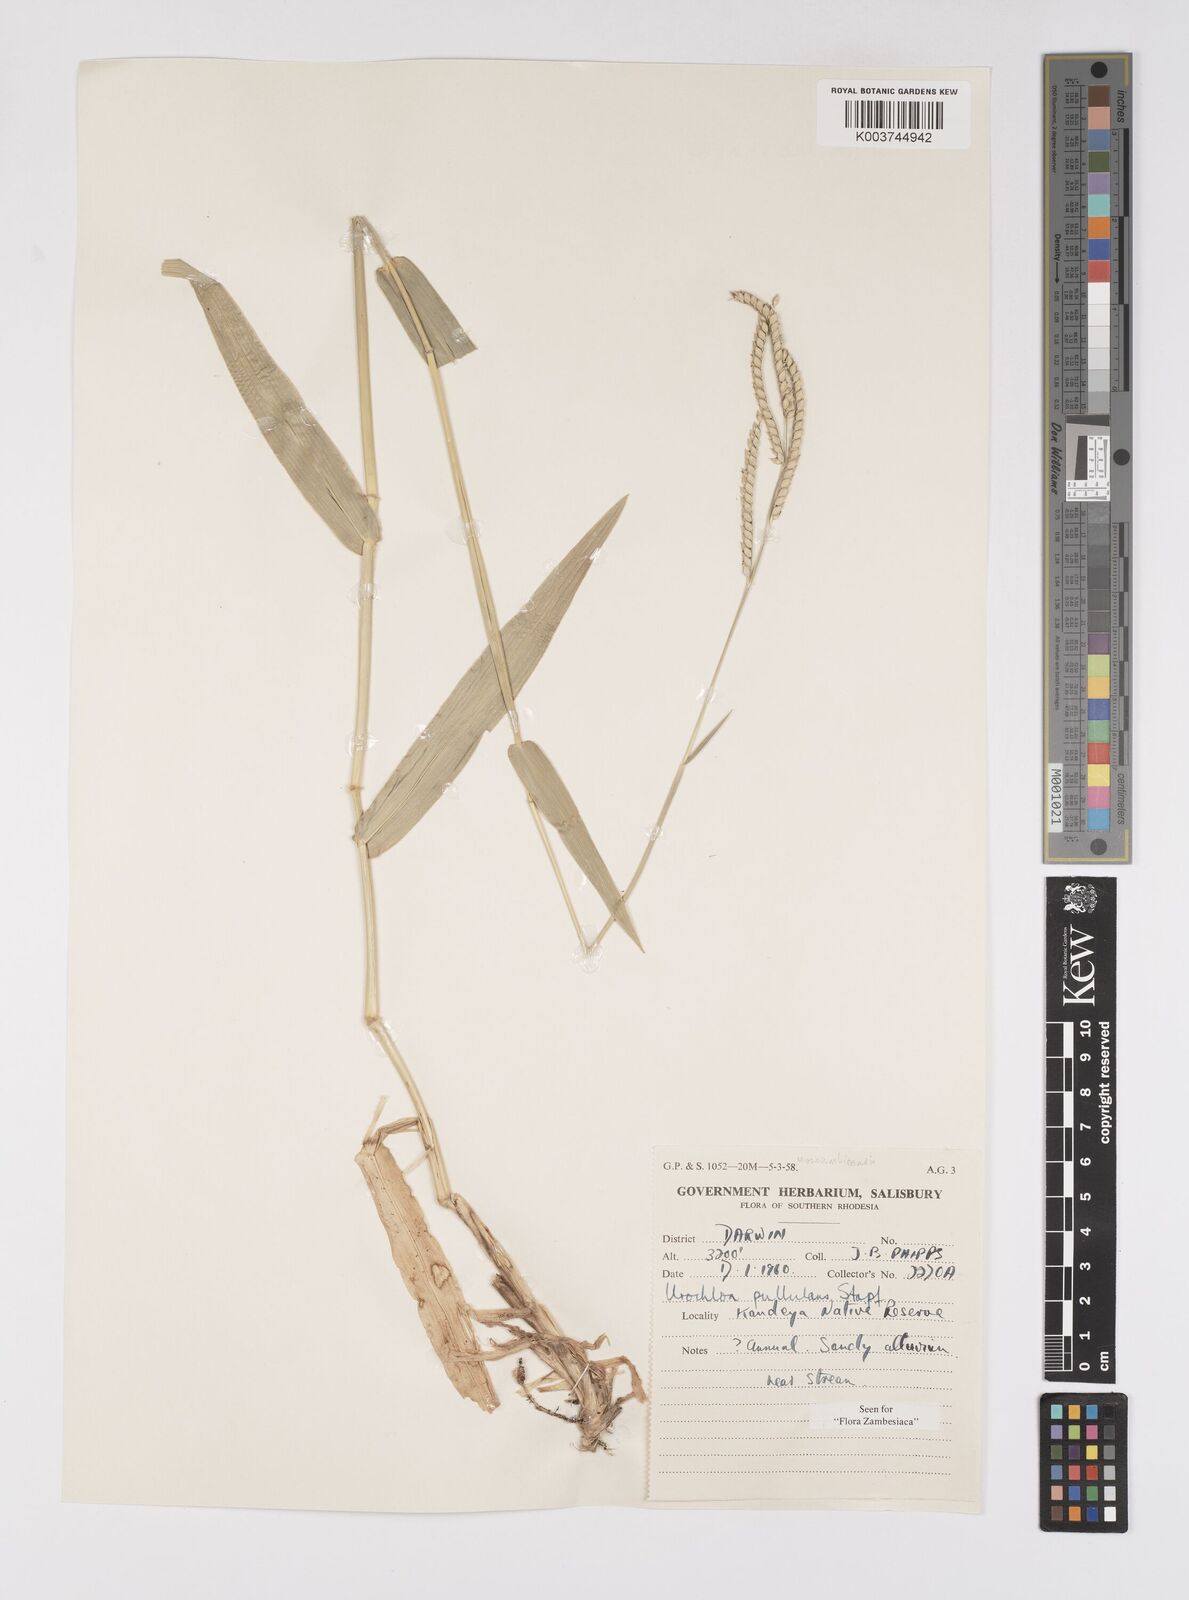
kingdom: Plantae
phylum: Tracheophyta
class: Liliopsida
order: Poales
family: Poaceae
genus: Urochloa
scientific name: Urochloa trichopus
